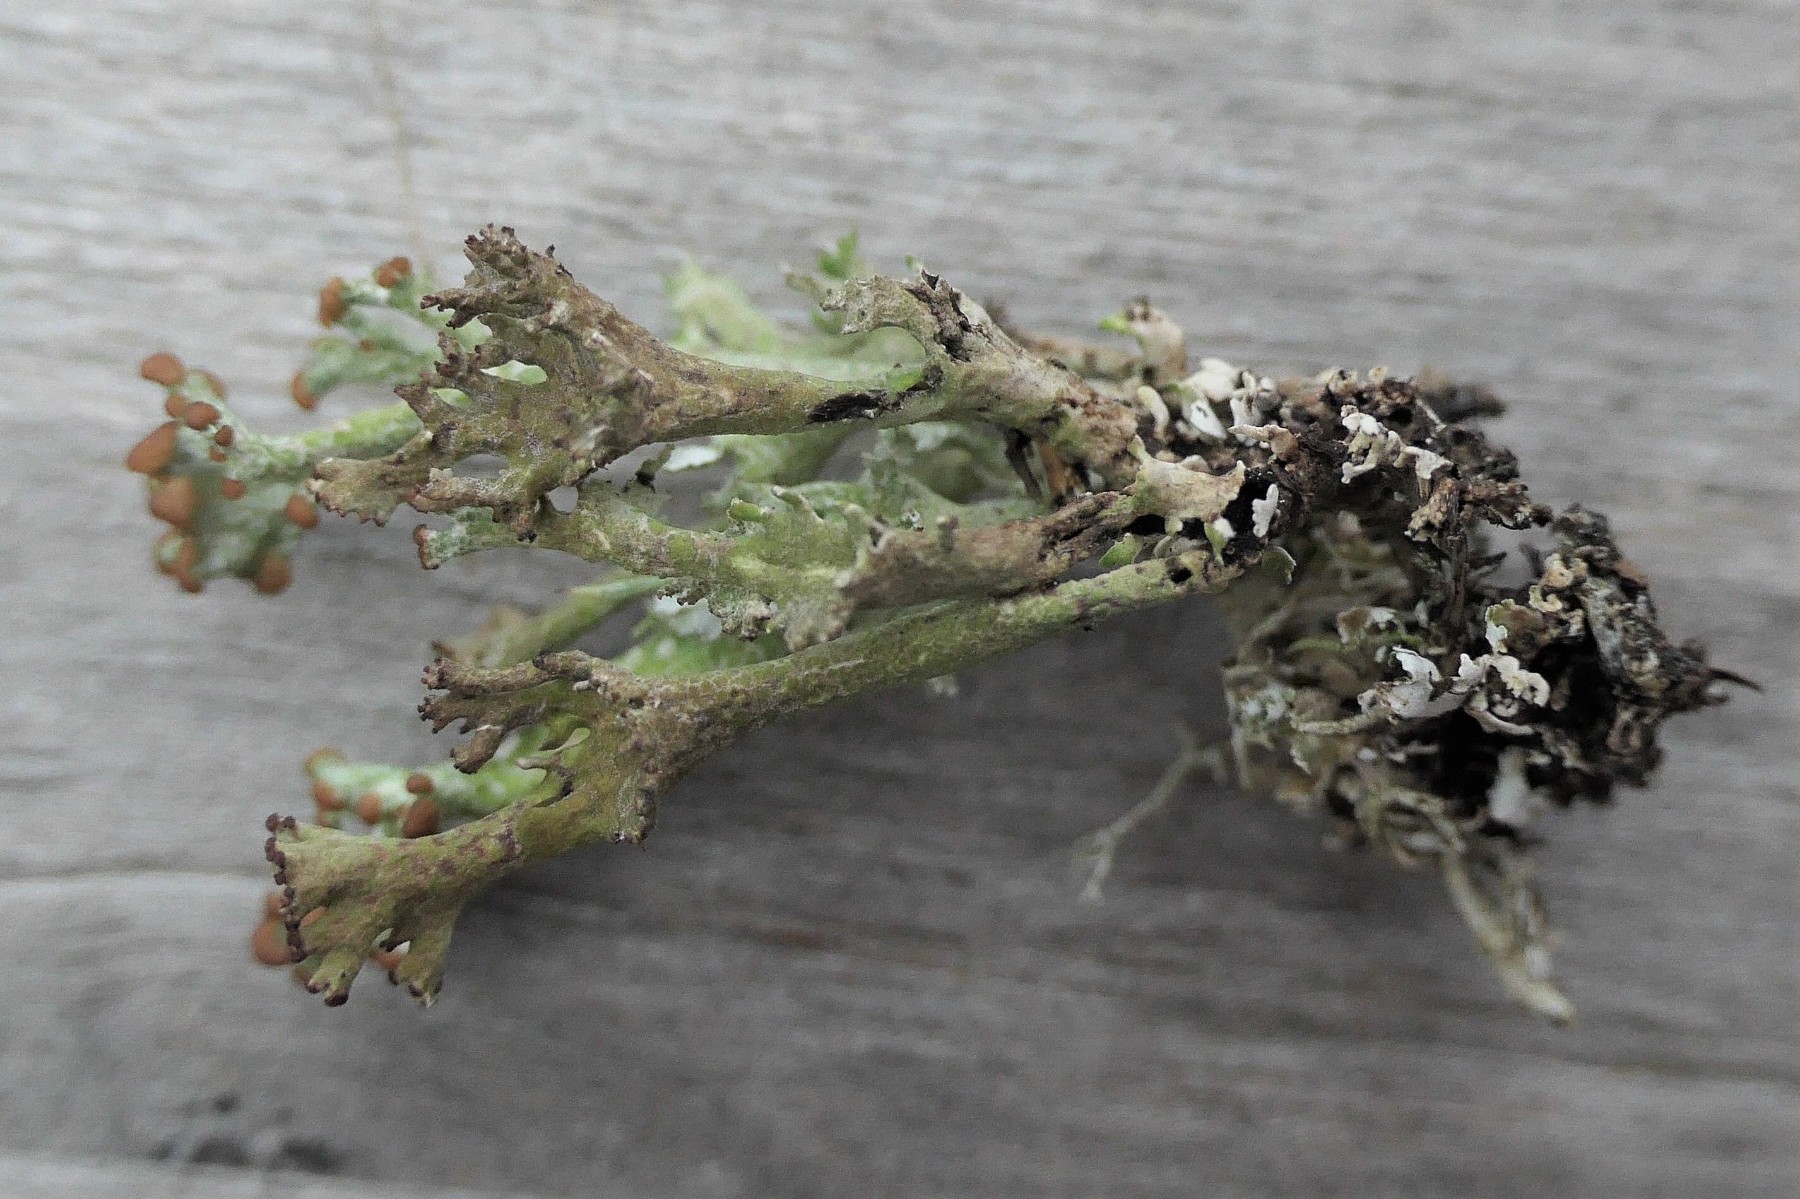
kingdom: Fungi
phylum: Ascomycota
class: Lecanoromycetes
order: Lecanorales
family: Cladoniaceae
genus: Cladonia
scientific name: Cladonia phyllophora
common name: sortfodet bægerlav
